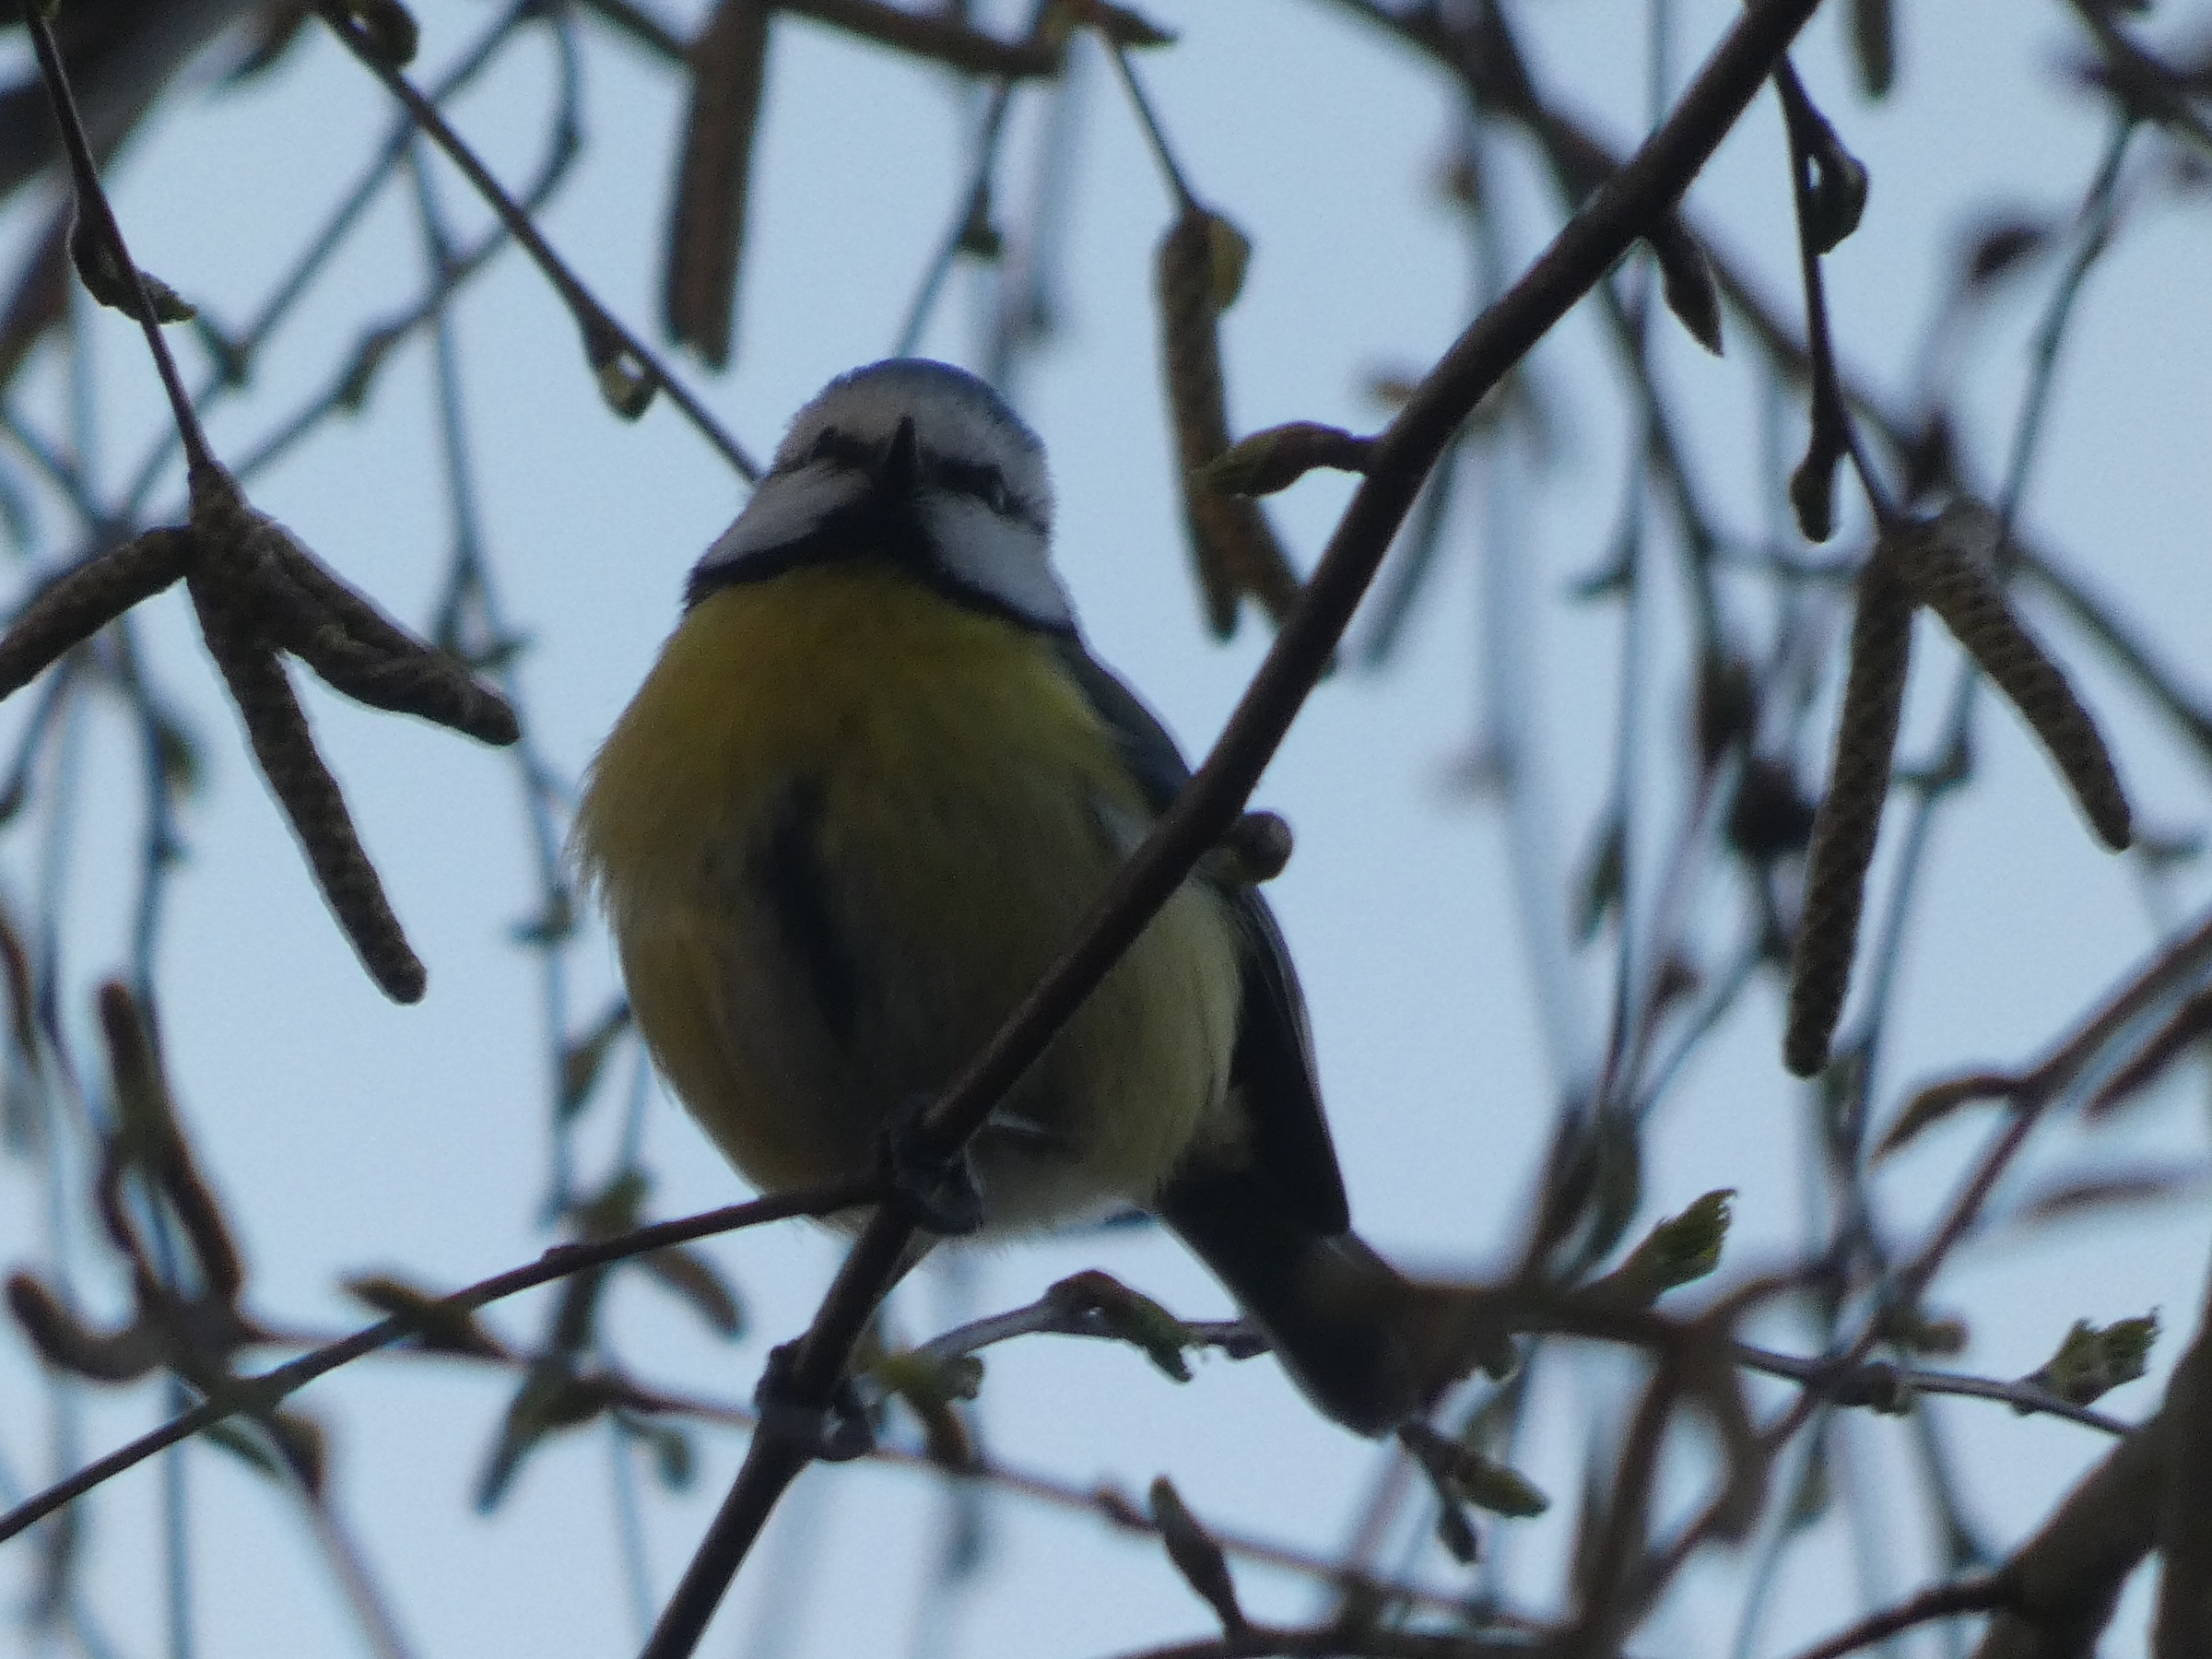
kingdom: Animalia
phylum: Chordata
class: Aves
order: Passeriformes
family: Paridae
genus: Cyanistes
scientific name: Cyanistes caeruleus
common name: Blåmejse
